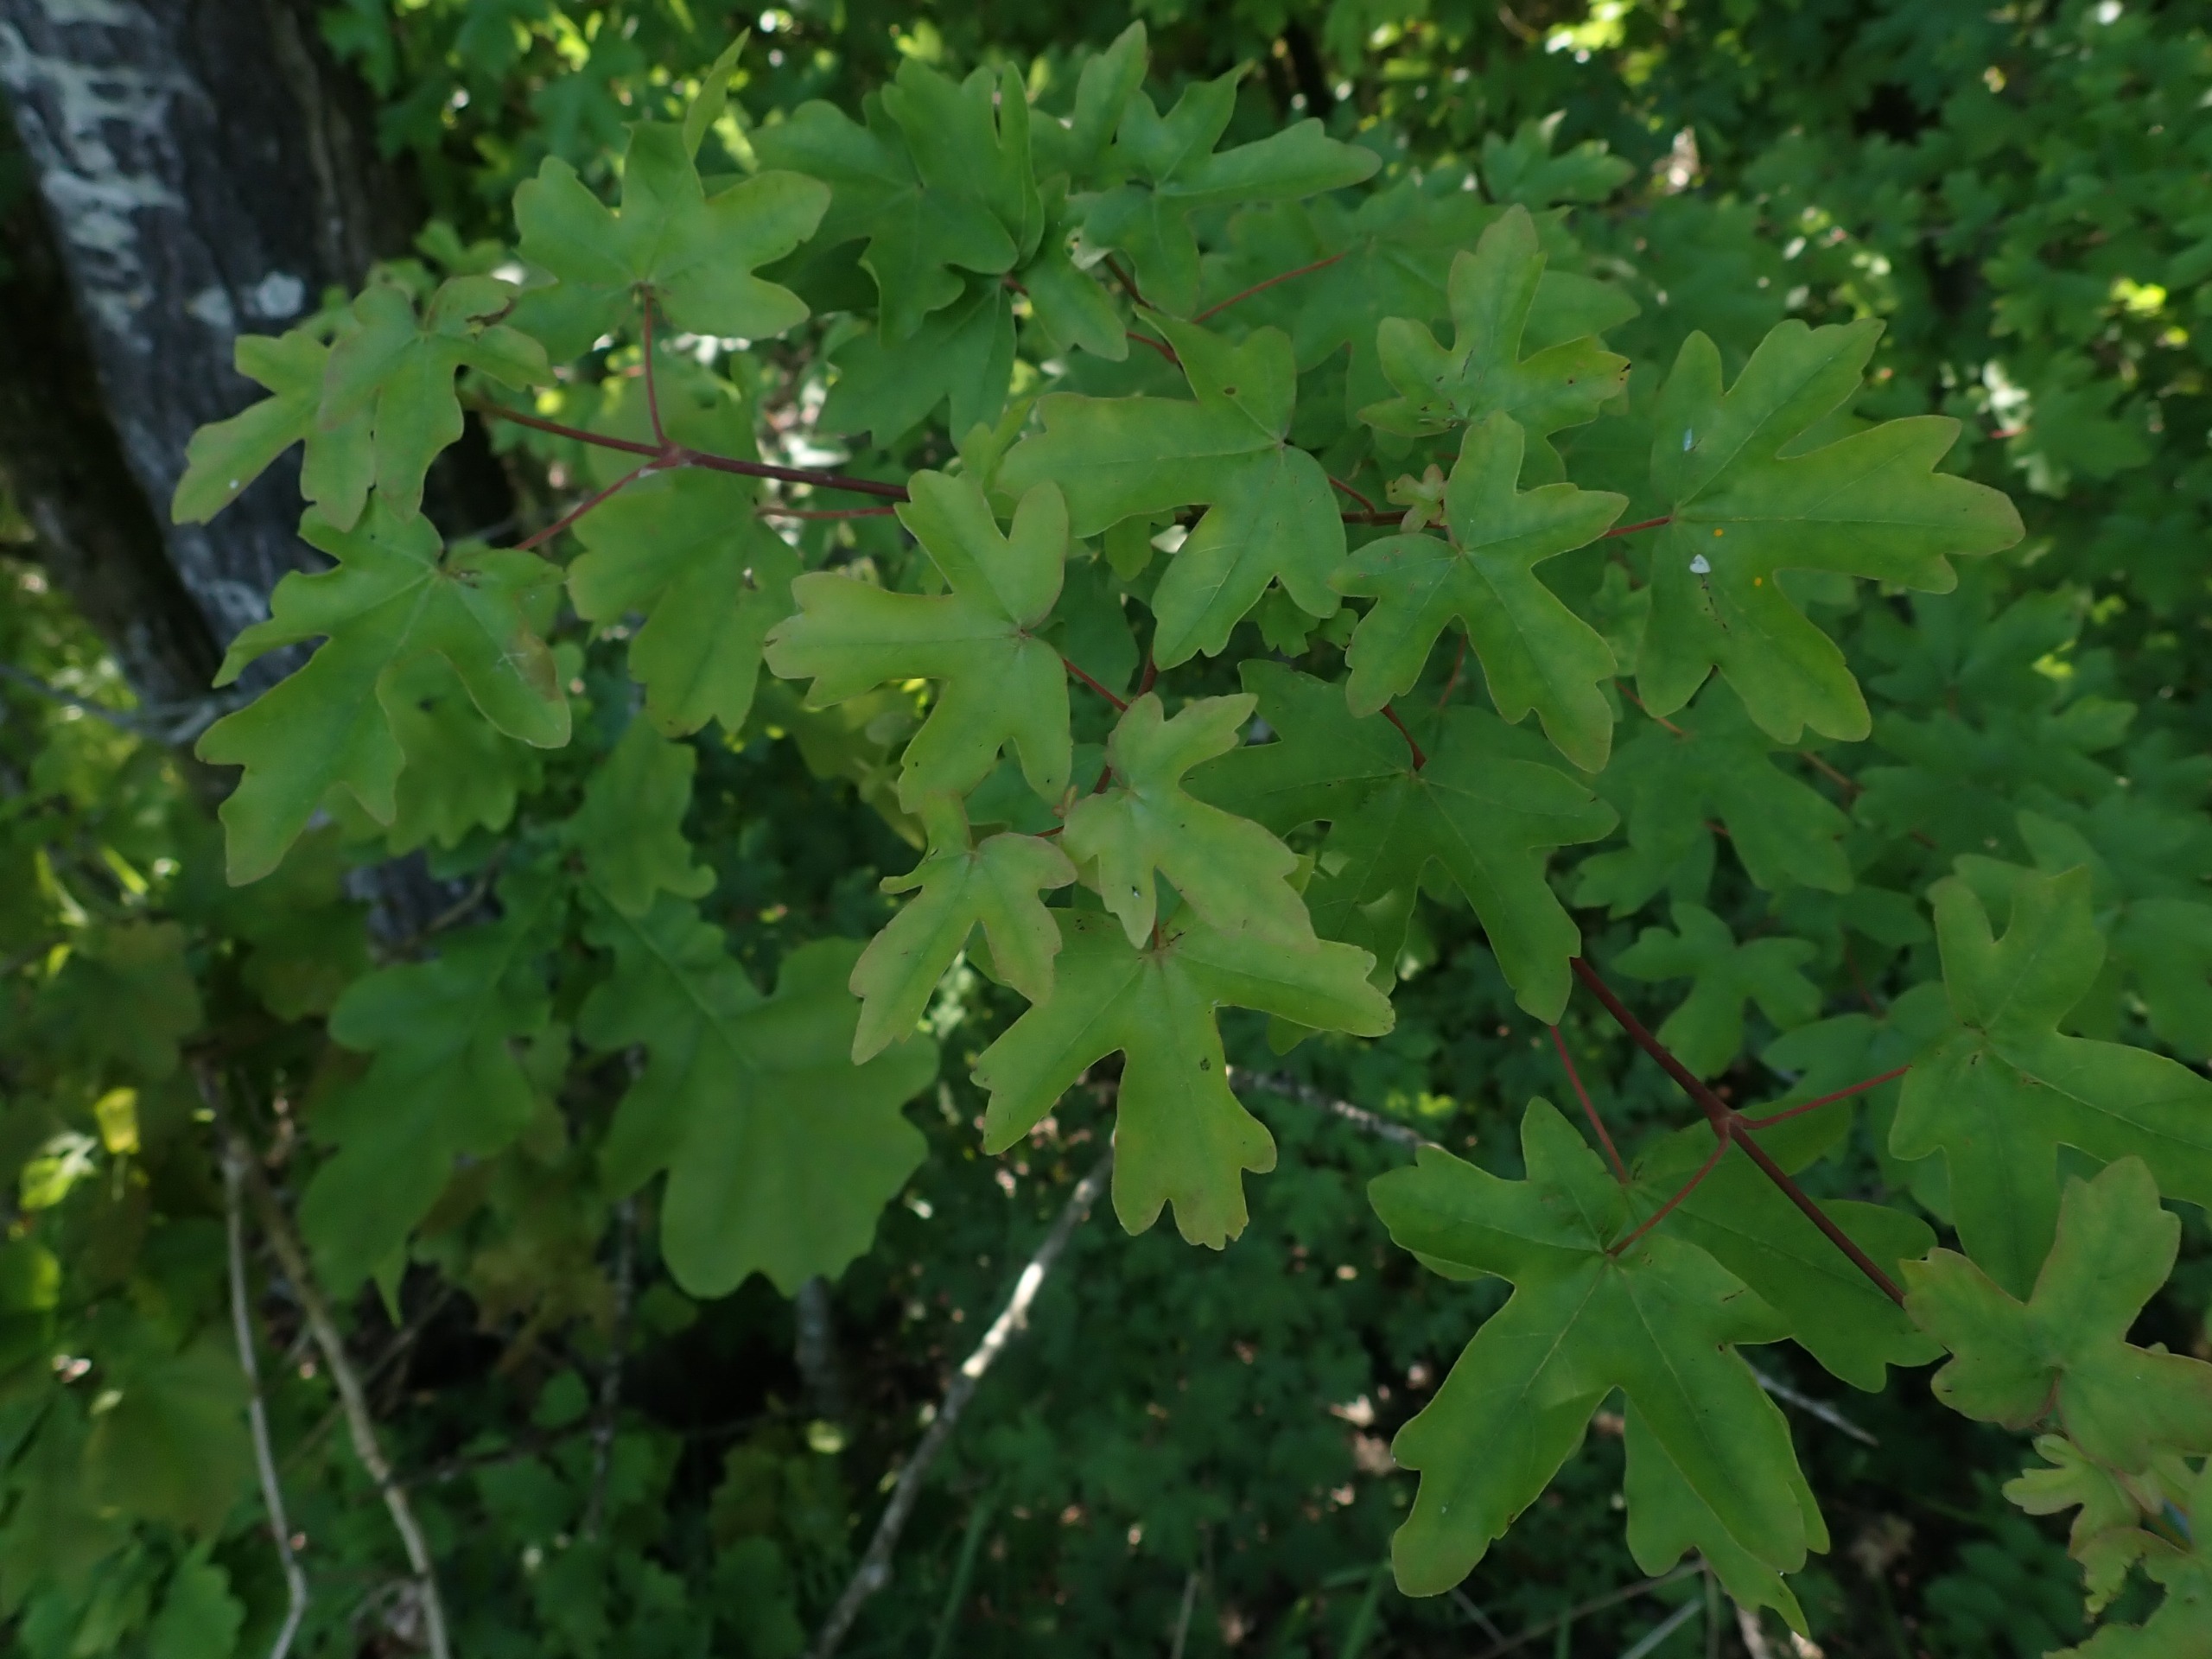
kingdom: Plantae
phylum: Tracheophyta
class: Magnoliopsida
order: Sapindales
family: Sapindaceae
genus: Acer
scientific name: Acer campestre
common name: Navr
